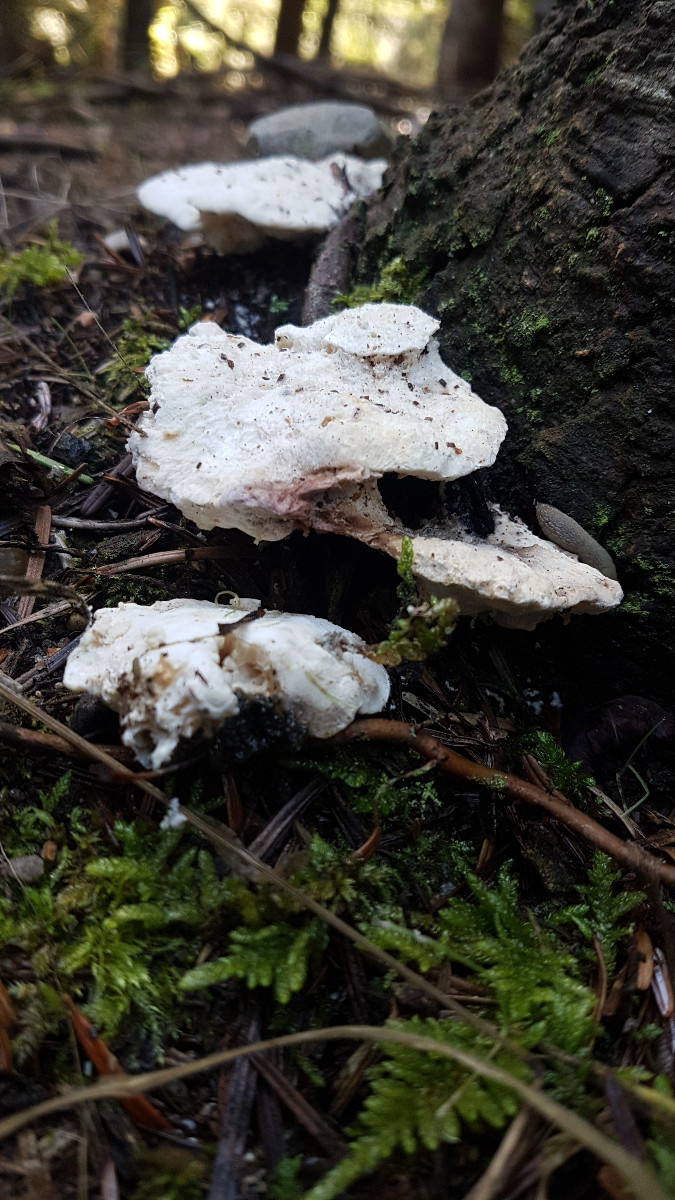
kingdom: Fungi
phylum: Basidiomycota
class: Agaricomycetes
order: Polyporales
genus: Amaropostia
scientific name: Amaropostia stiptica
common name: bitter kødporesvamp
